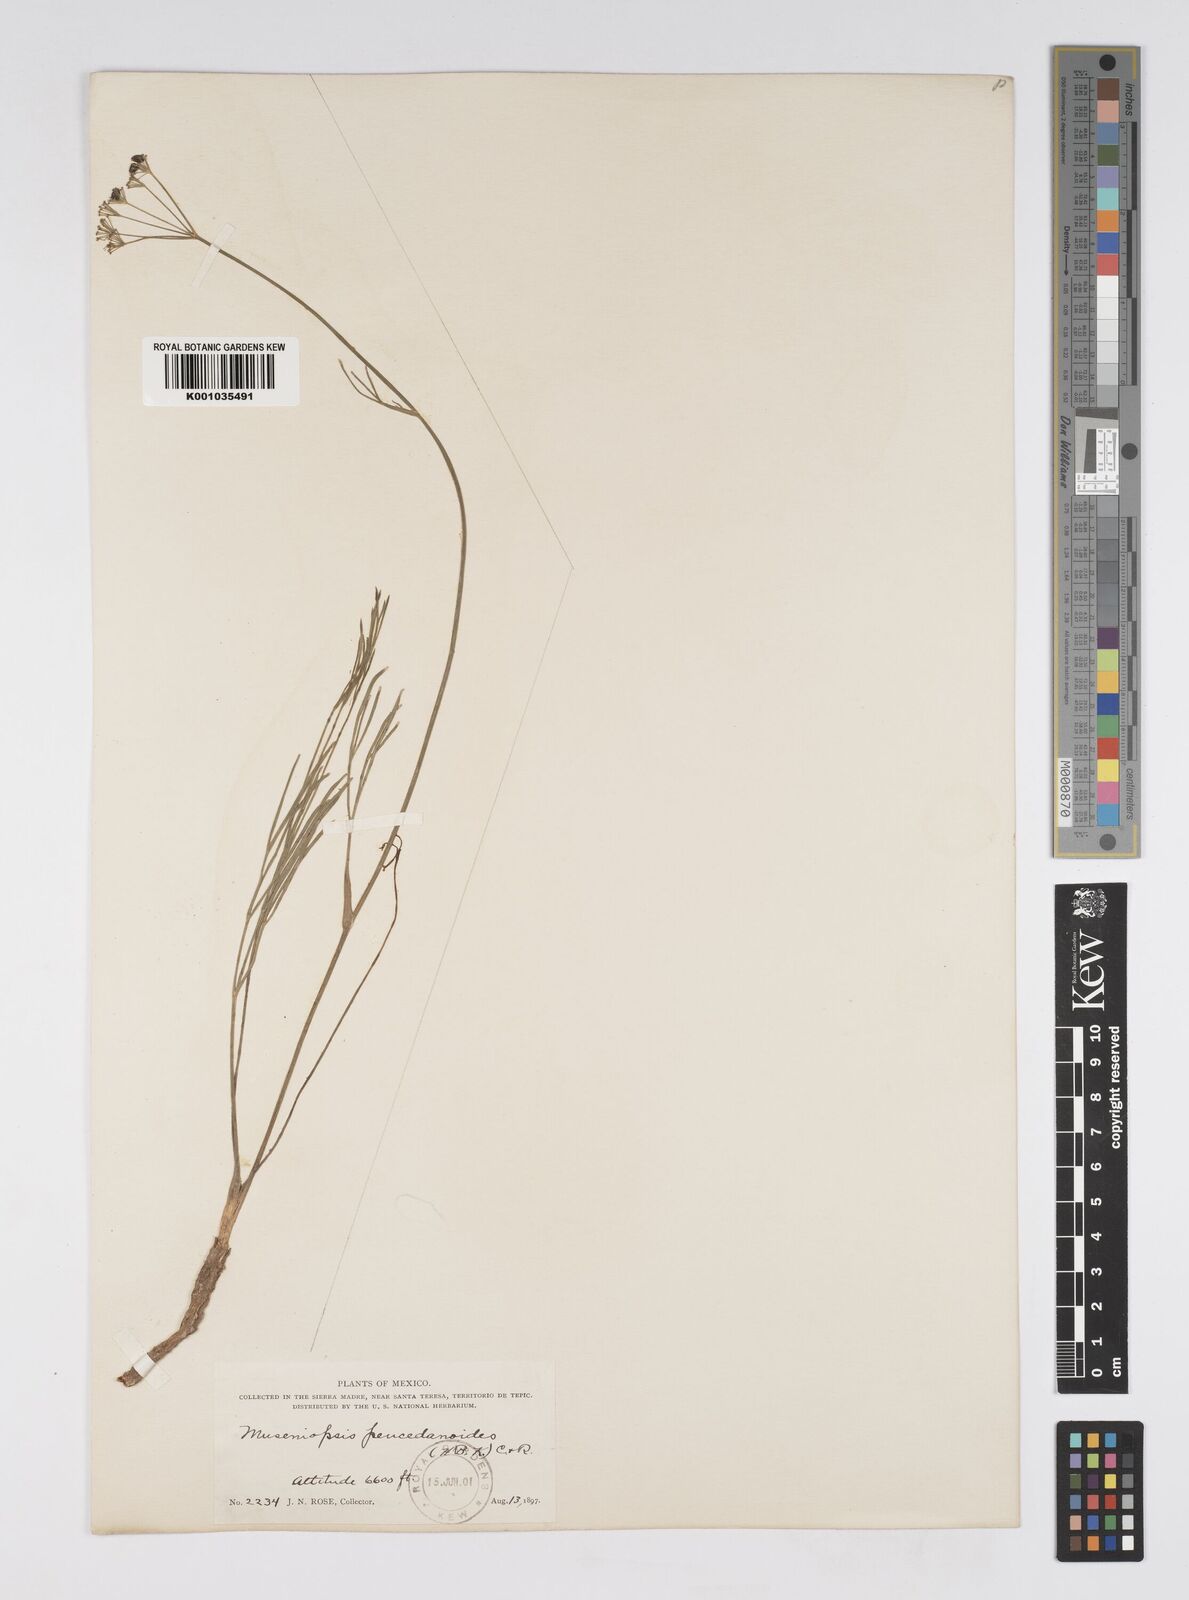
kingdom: Plantae
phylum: Tracheophyta
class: Magnoliopsida
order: Apiales
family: Apiaceae
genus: Donnellsmithia
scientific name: Donnellsmithia juncea
